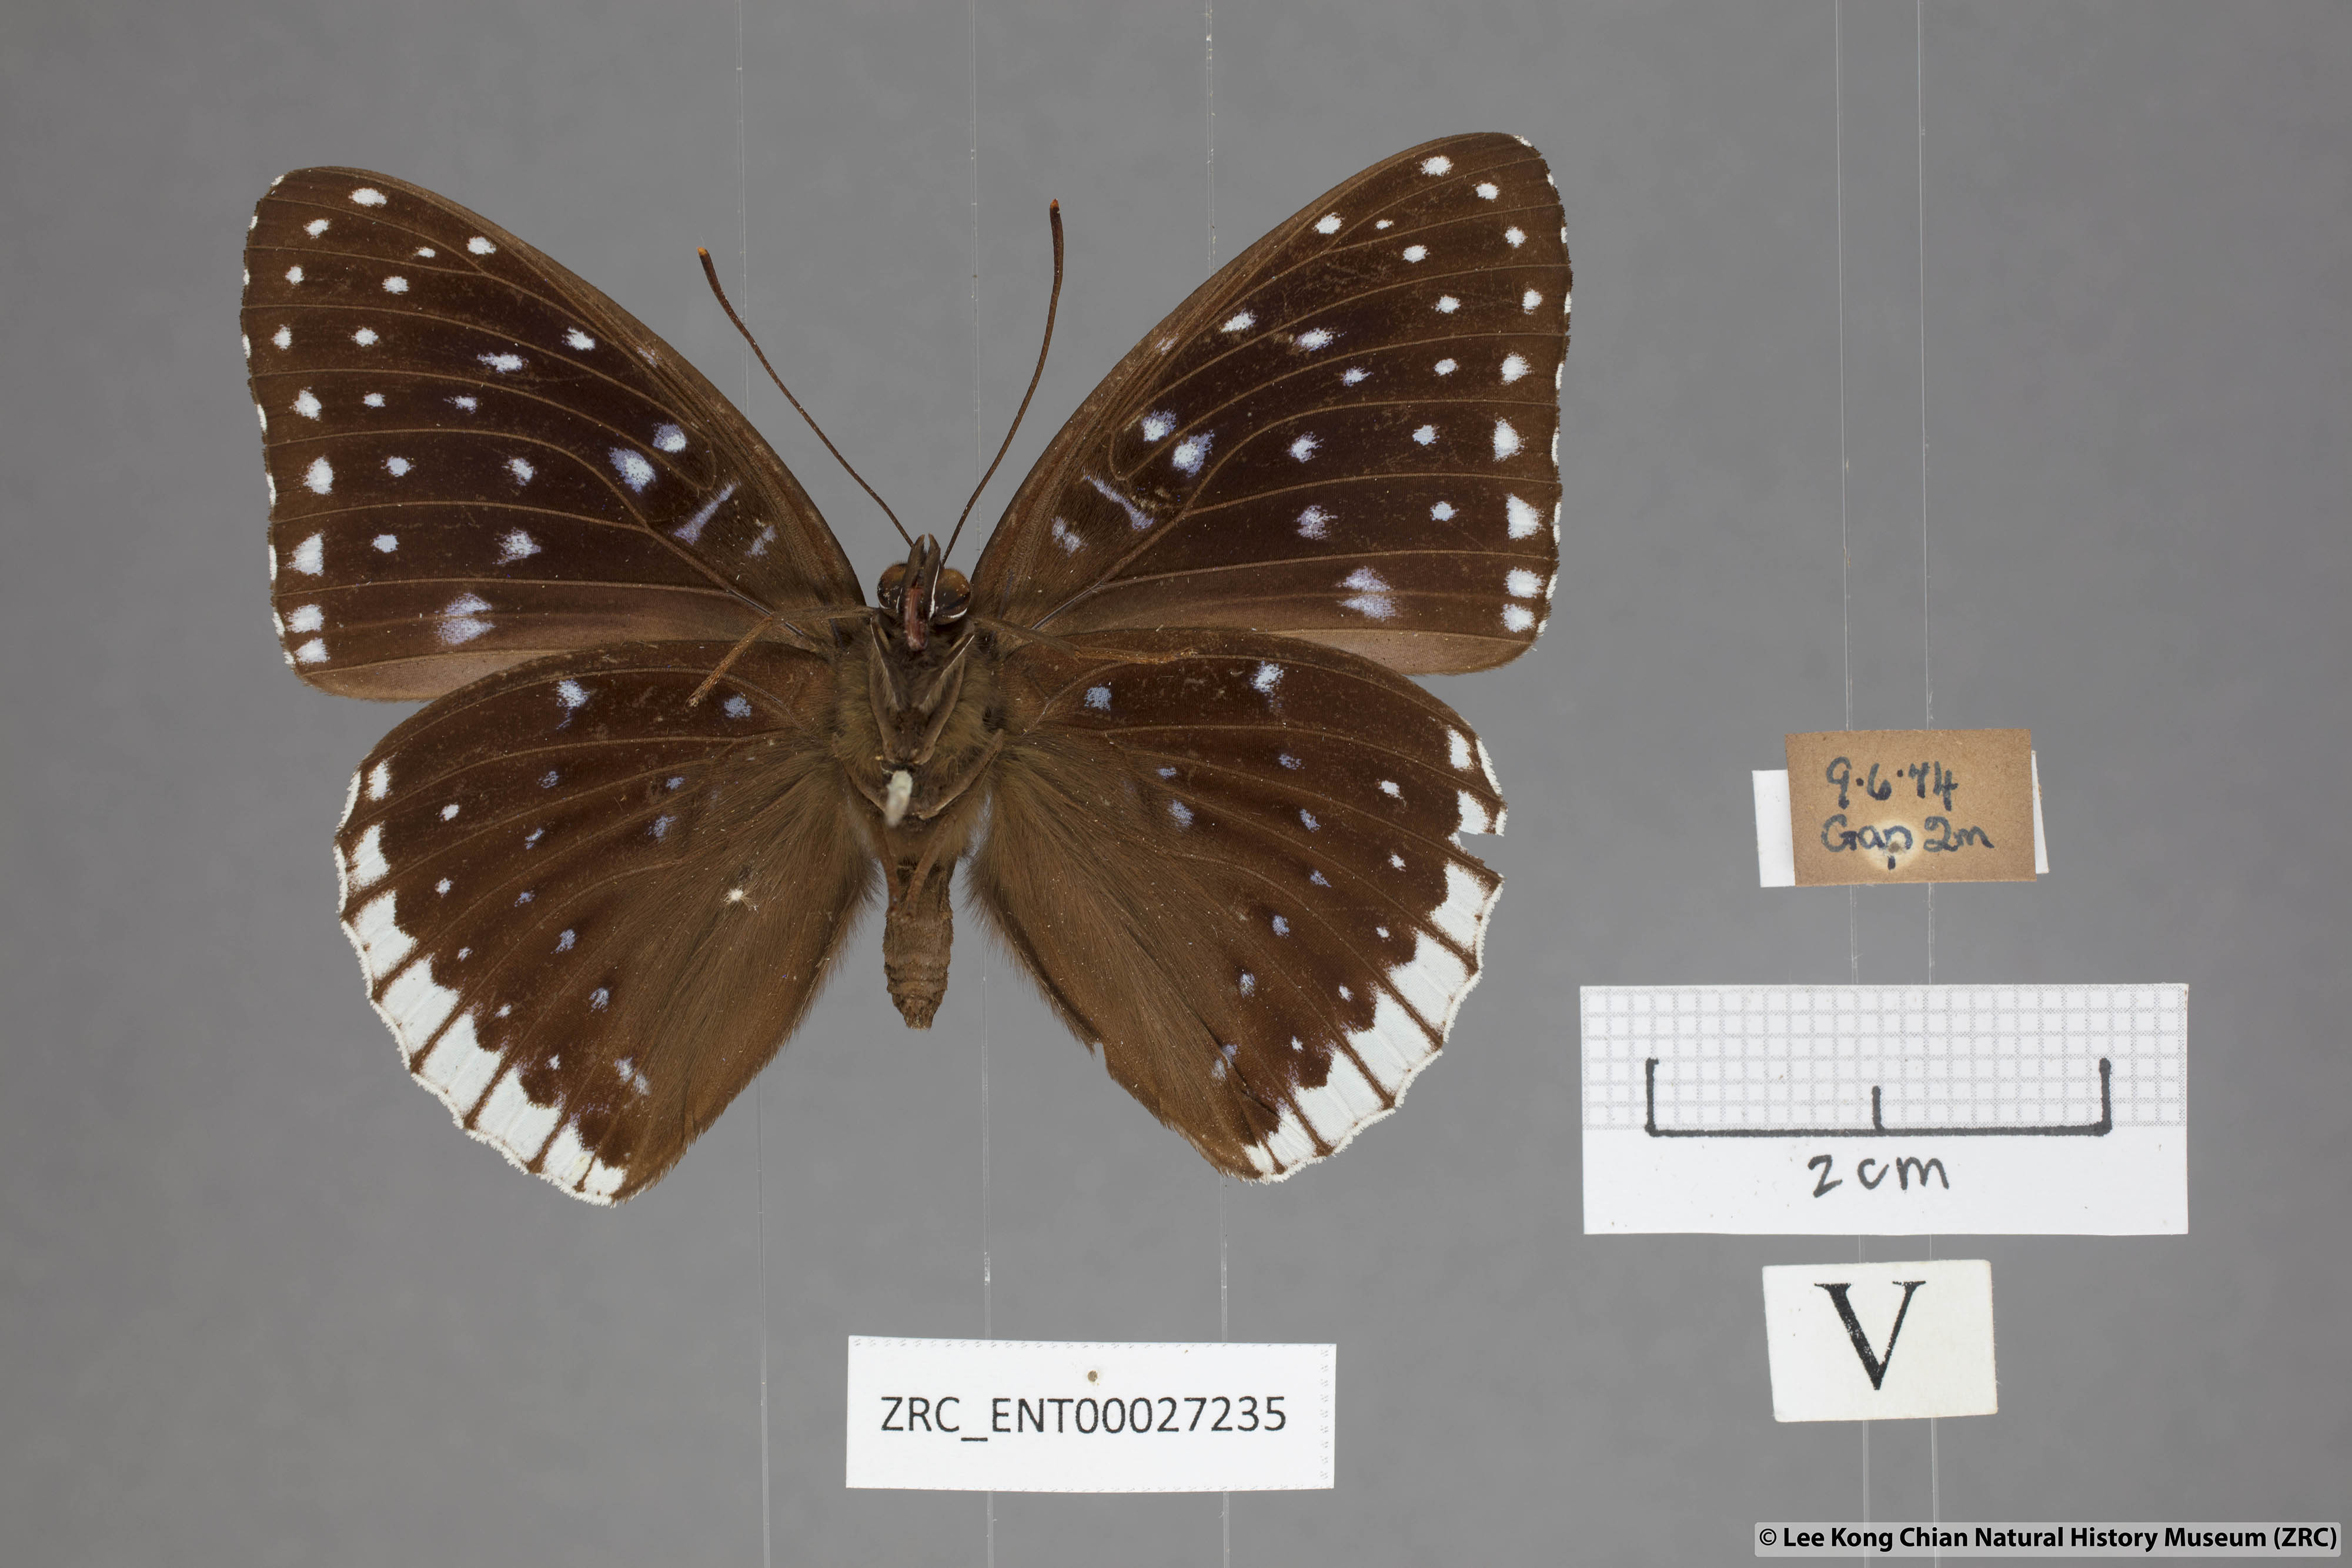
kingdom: Animalia
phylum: Arthropoda
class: Insecta
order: Lepidoptera
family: Nymphalidae
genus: Stibochiona
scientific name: Stibochiona nicea
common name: Popinjay
